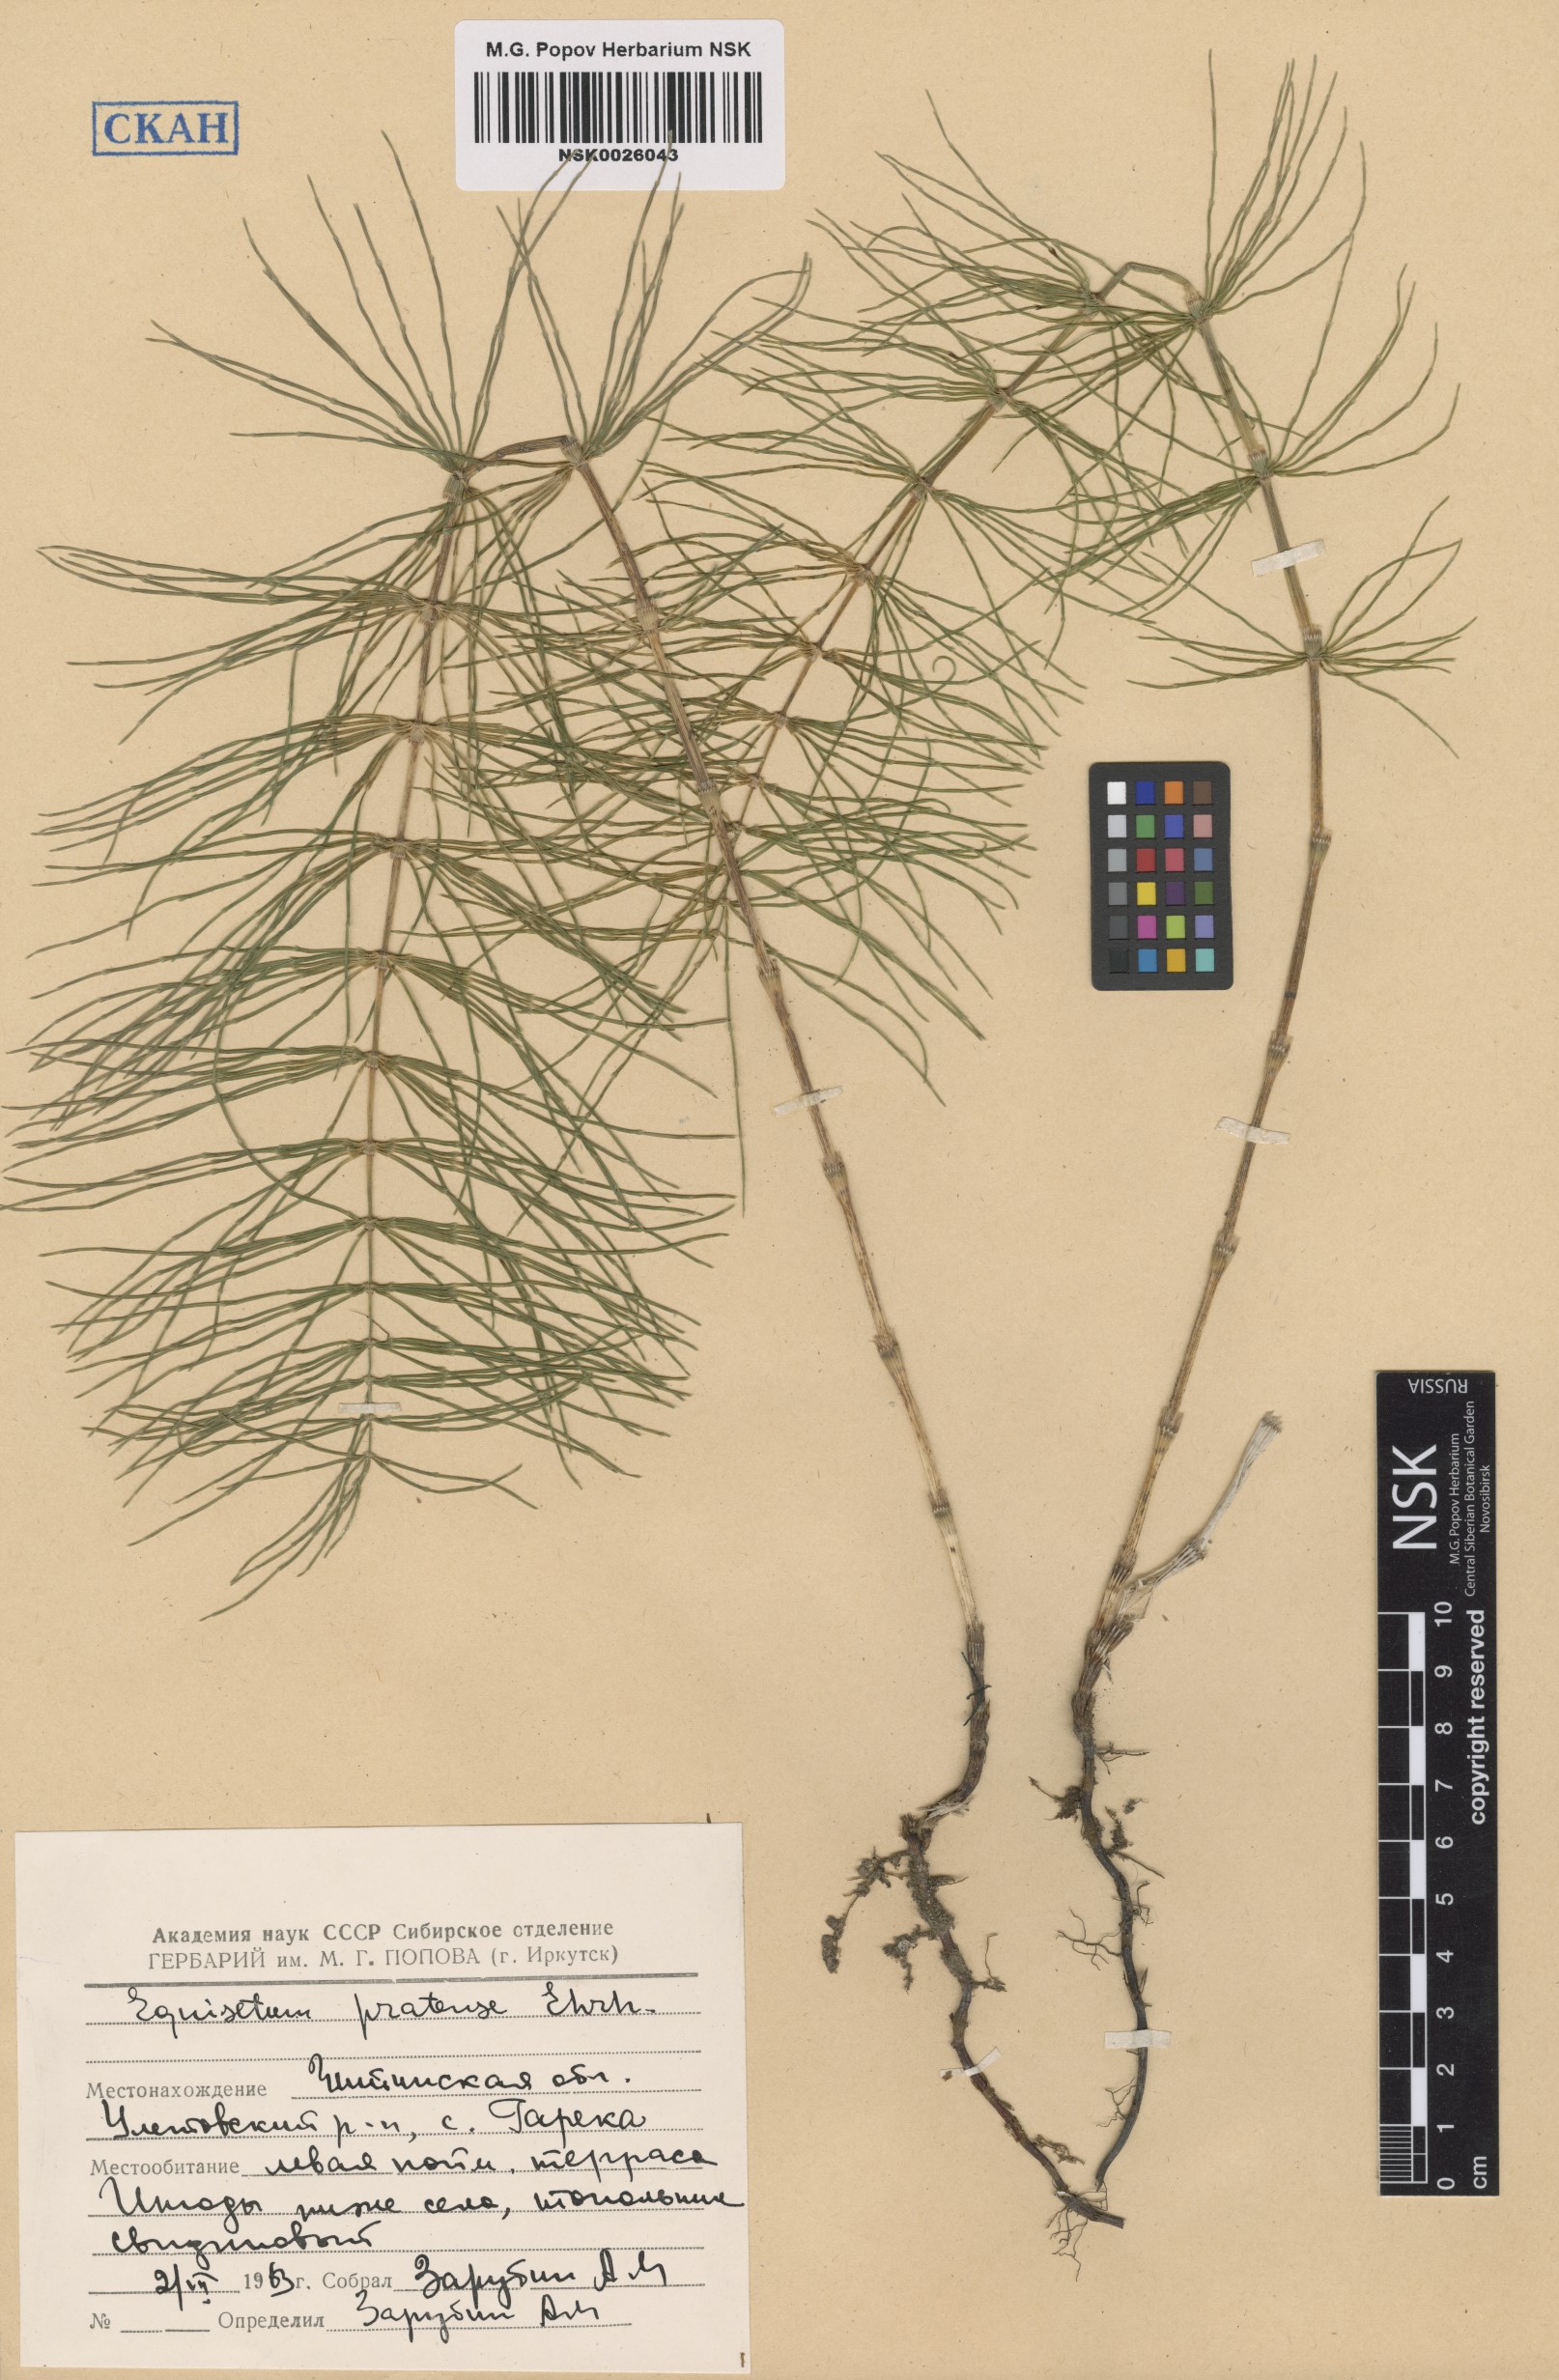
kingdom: Plantae
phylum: Tracheophyta
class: Polypodiopsida
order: Equisetales
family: Equisetaceae
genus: Equisetum
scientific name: Equisetum pratense
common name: Meadow horsetail
